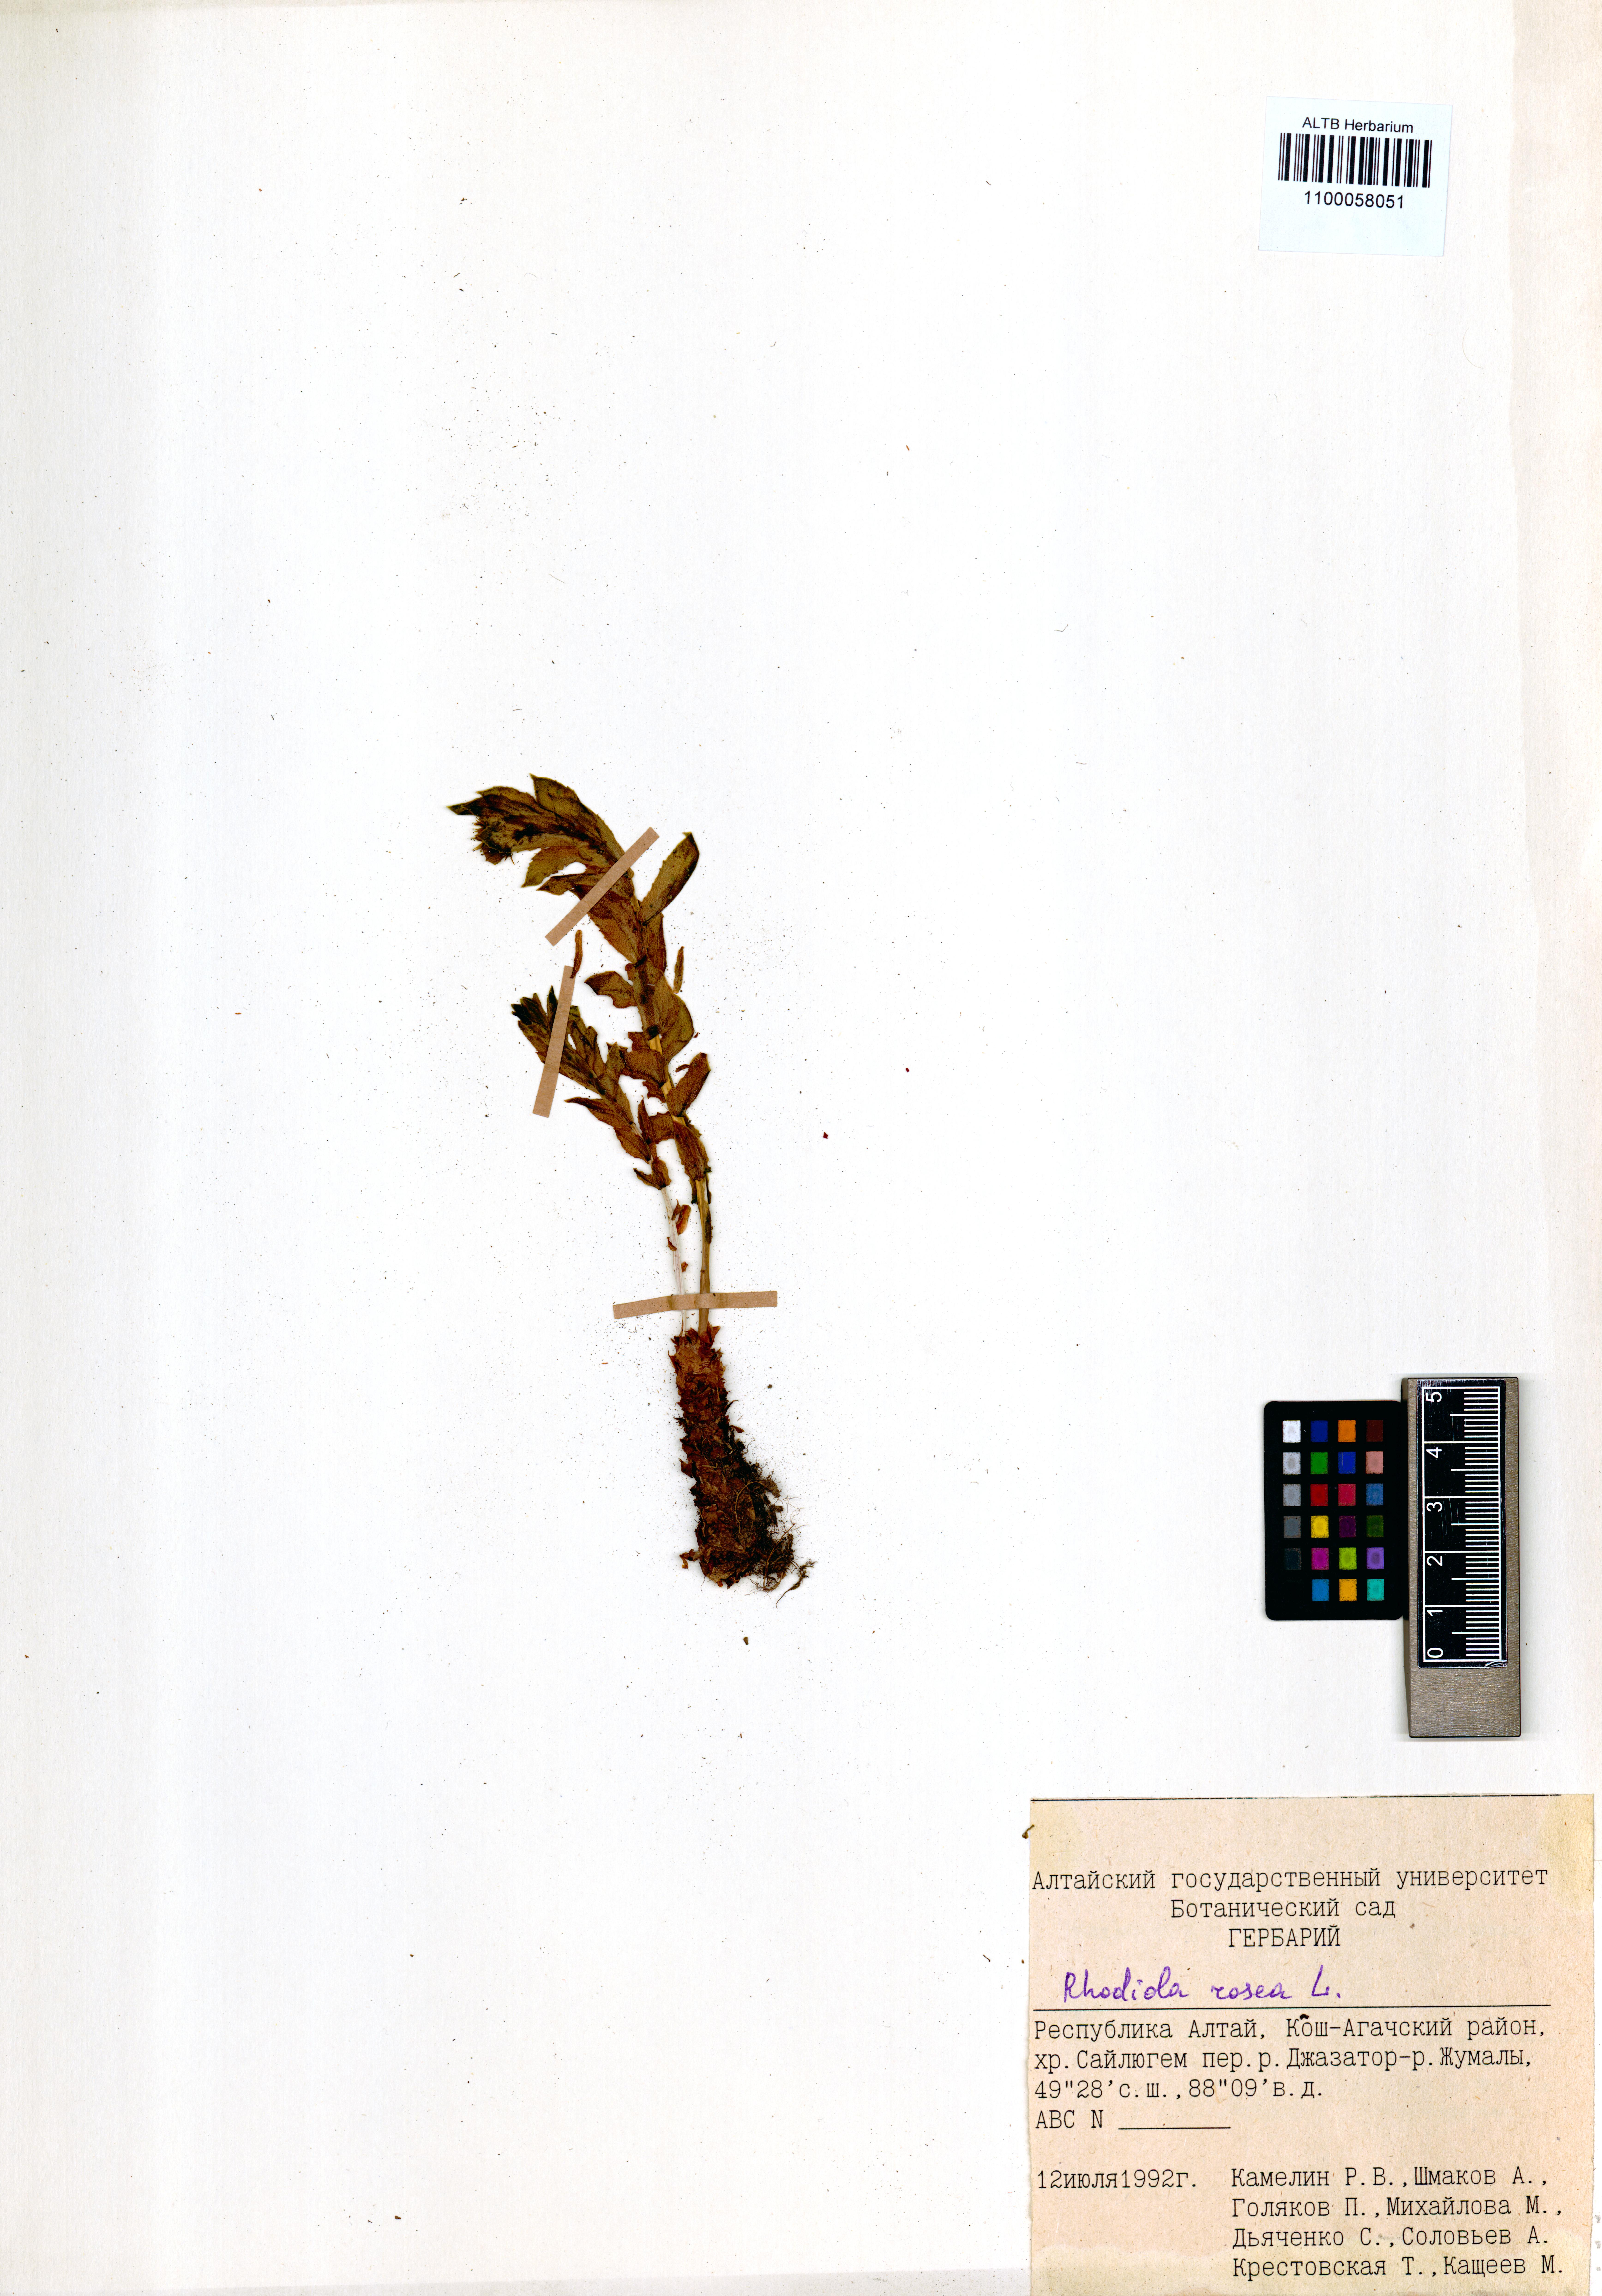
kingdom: Plantae
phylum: Tracheophyta
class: Magnoliopsida
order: Saxifragales
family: Crassulaceae
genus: Rhodiola
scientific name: Rhodiola rosea
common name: Roseroot
